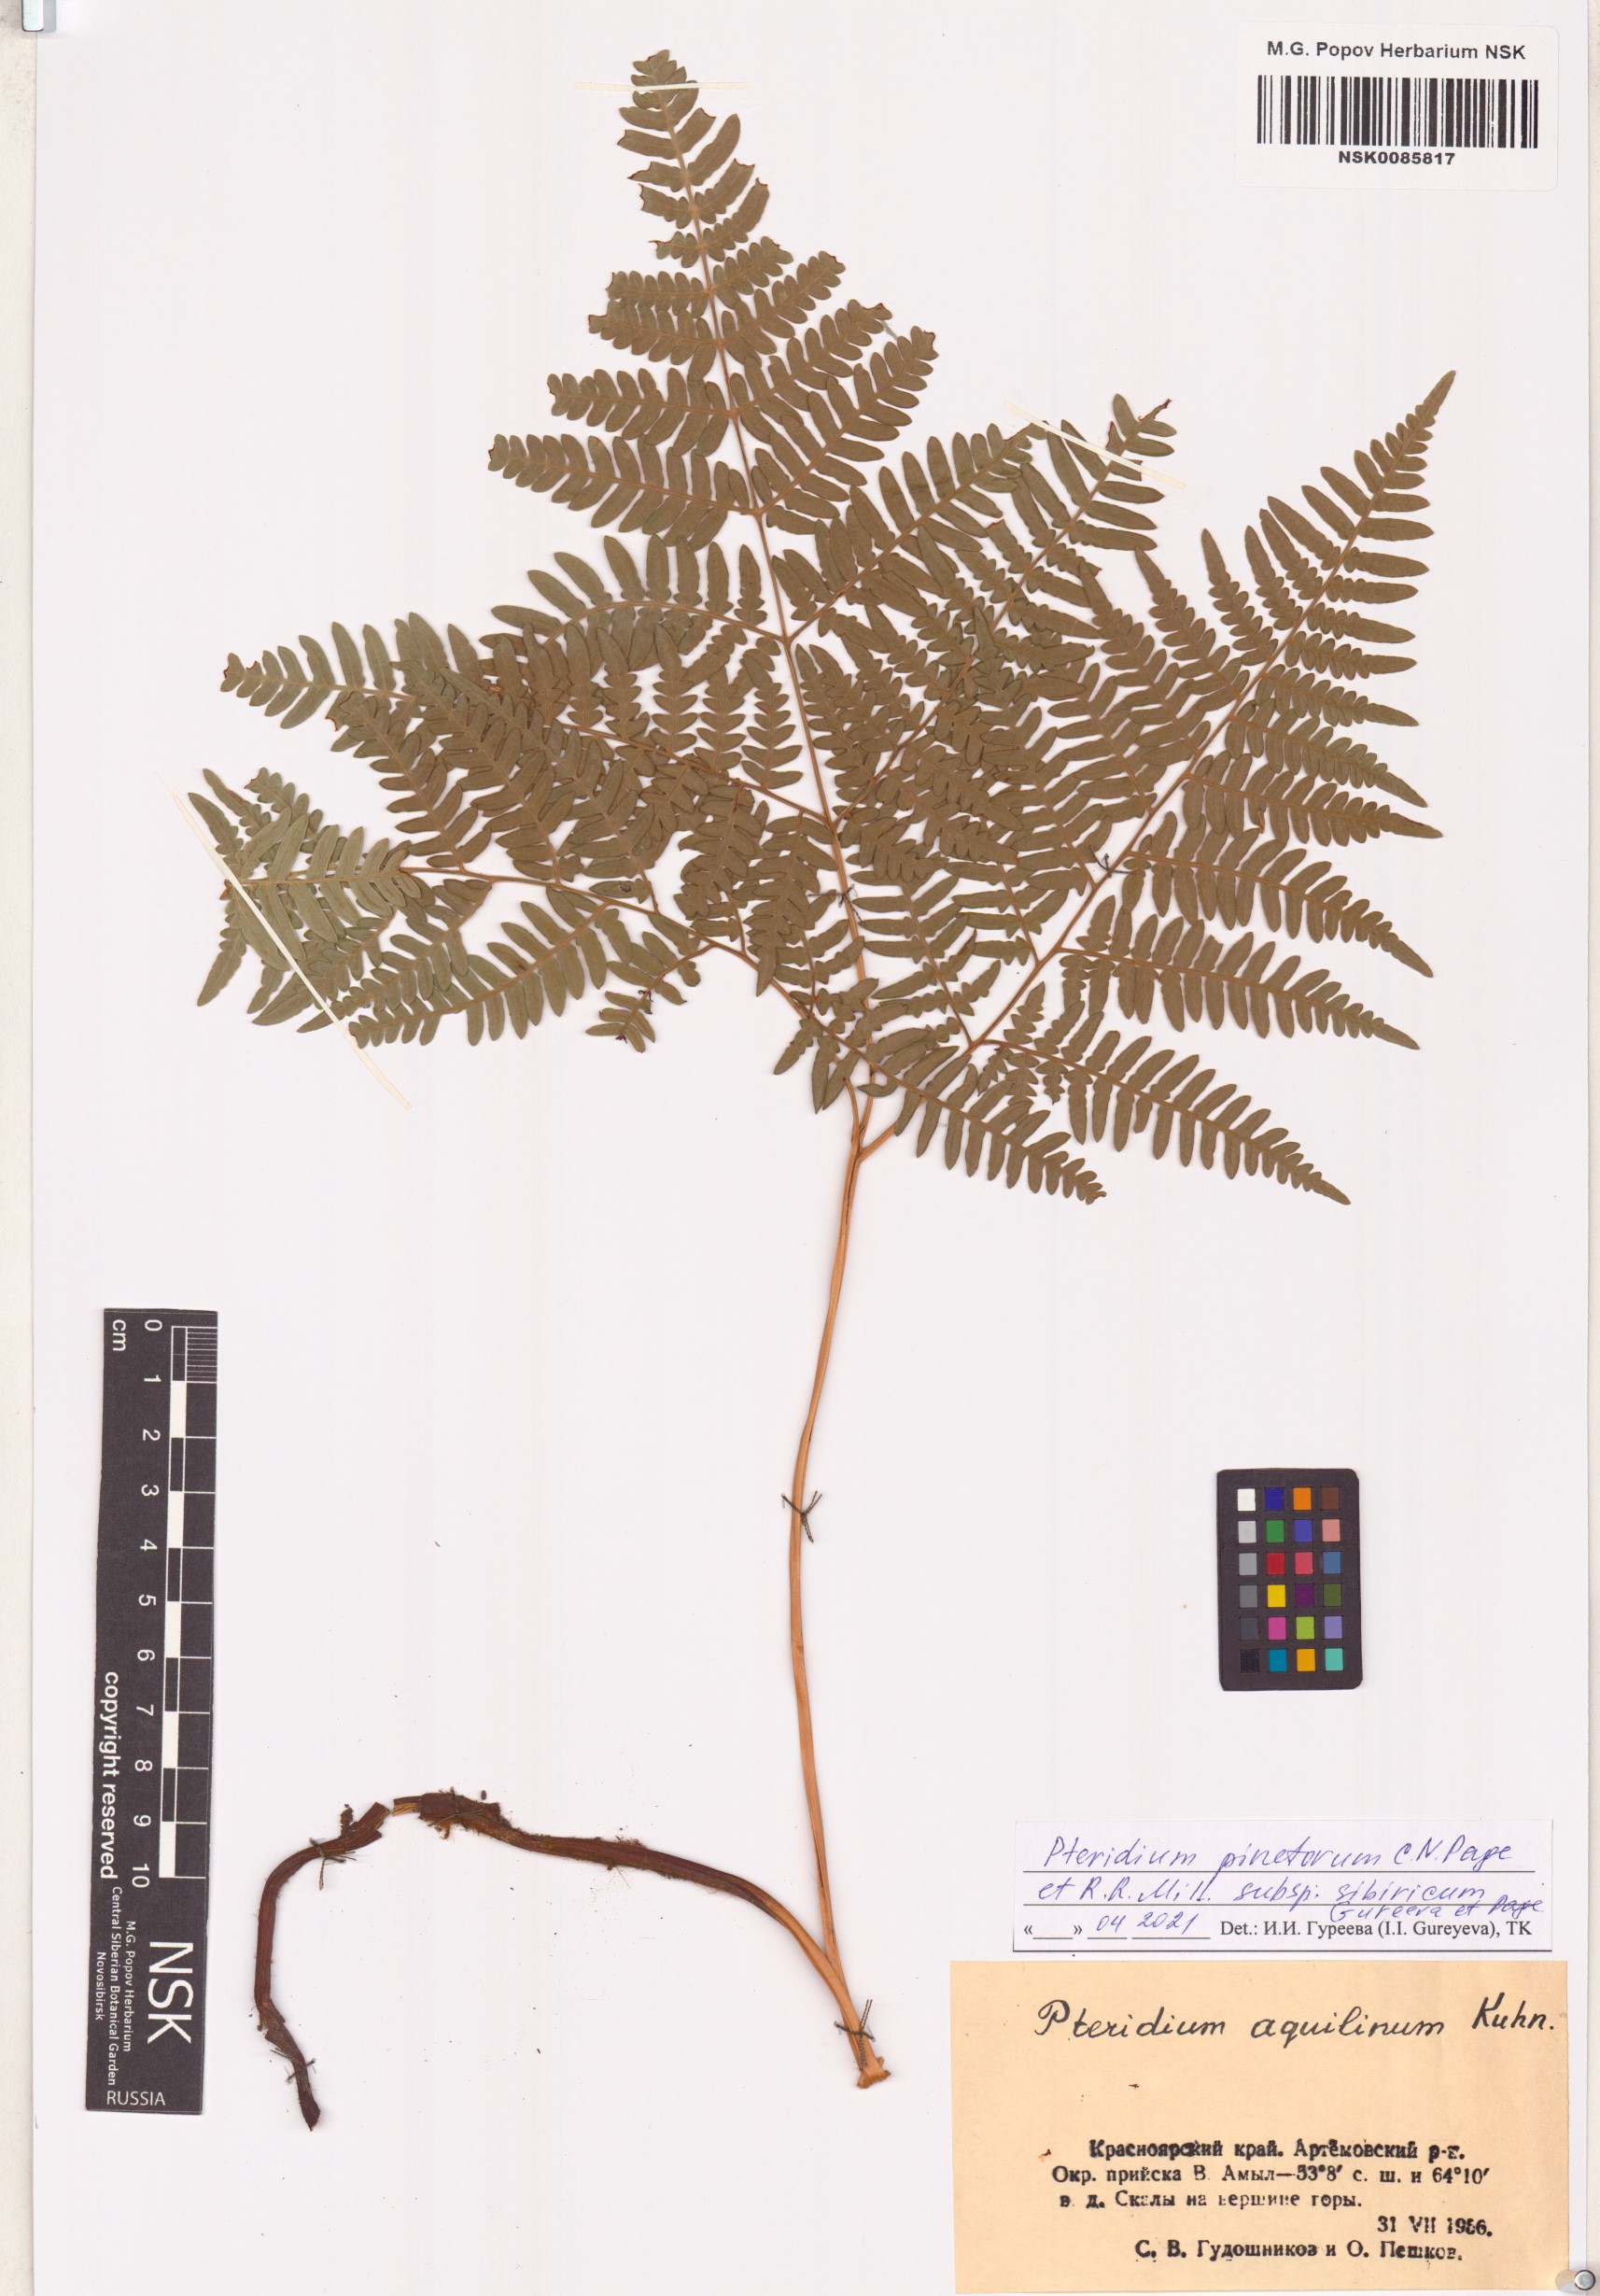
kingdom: Plantae
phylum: Tracheophyta
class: Polypodiopsida
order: Polypodiales
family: Dennstaedtiaceae
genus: Pteridium
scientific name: Pteridium aquilinum
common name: Bracken
